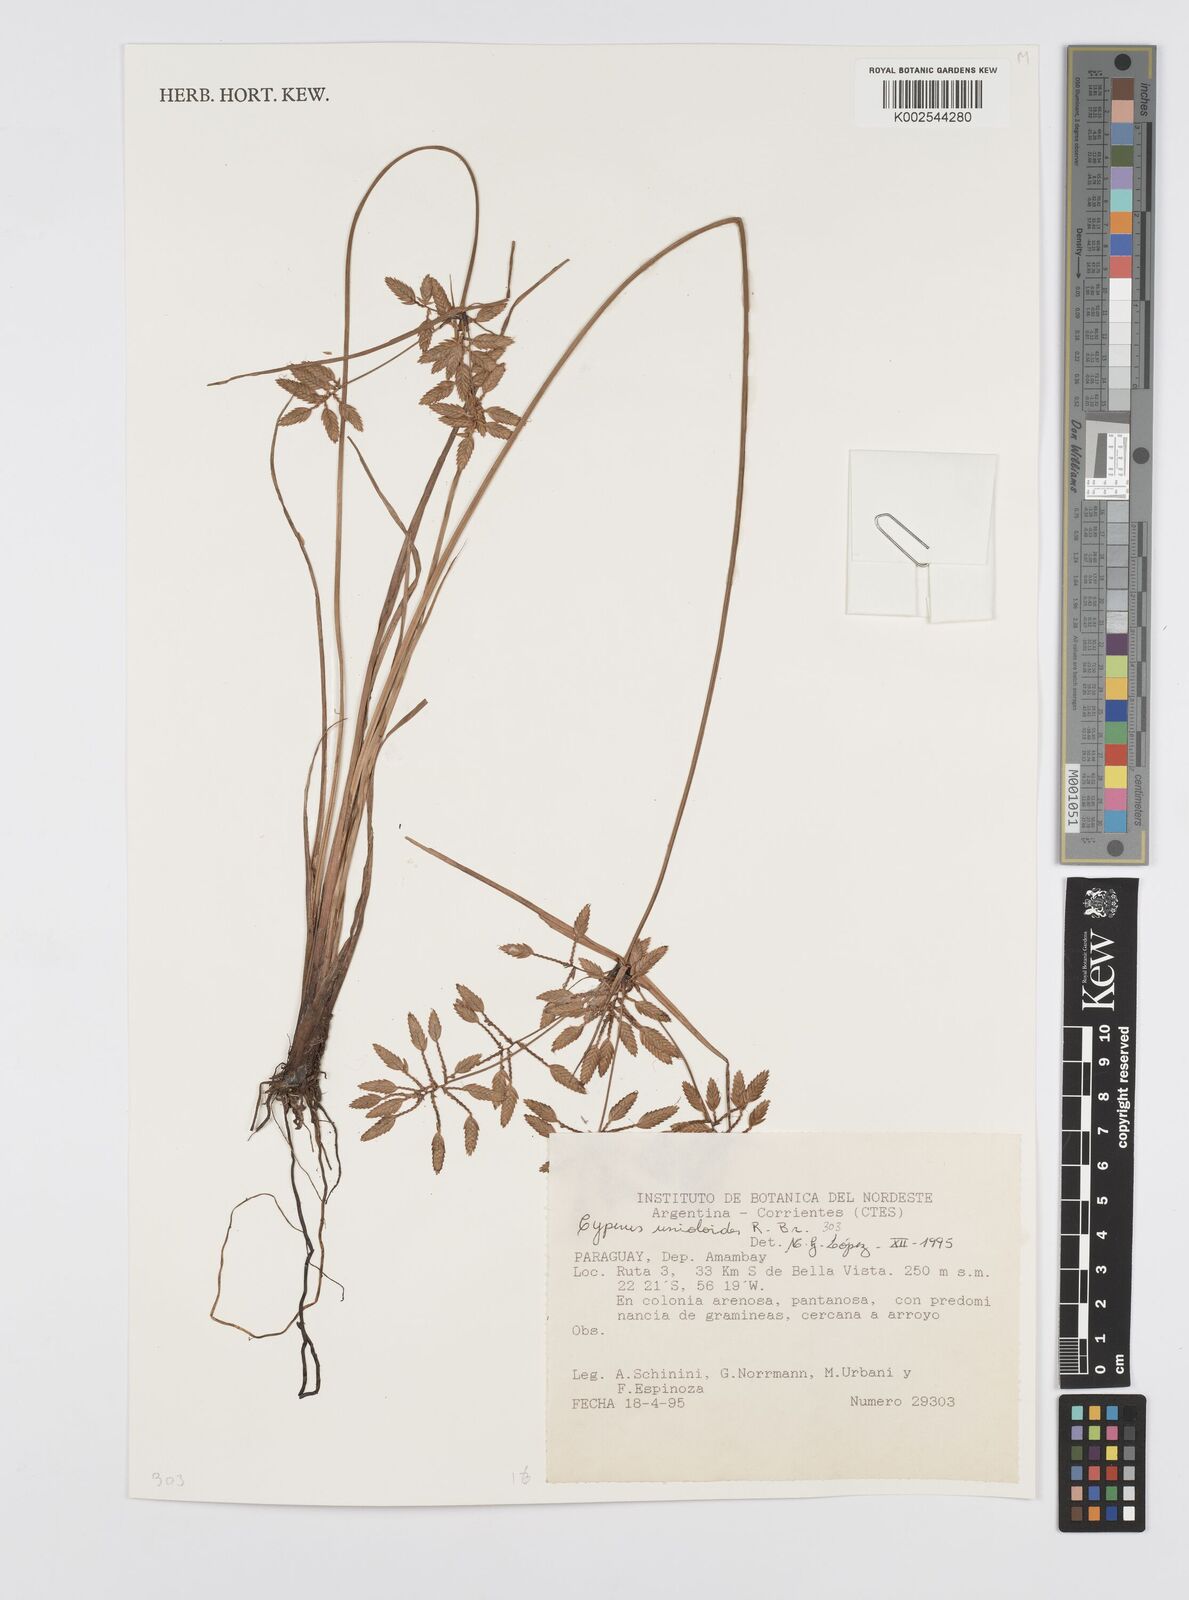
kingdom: Plantae
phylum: Tracheophyta
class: Liliopsida
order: Poales
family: Cyperaceae
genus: Cyperus
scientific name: Cyperus unioloides
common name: Uniola flatsedge
